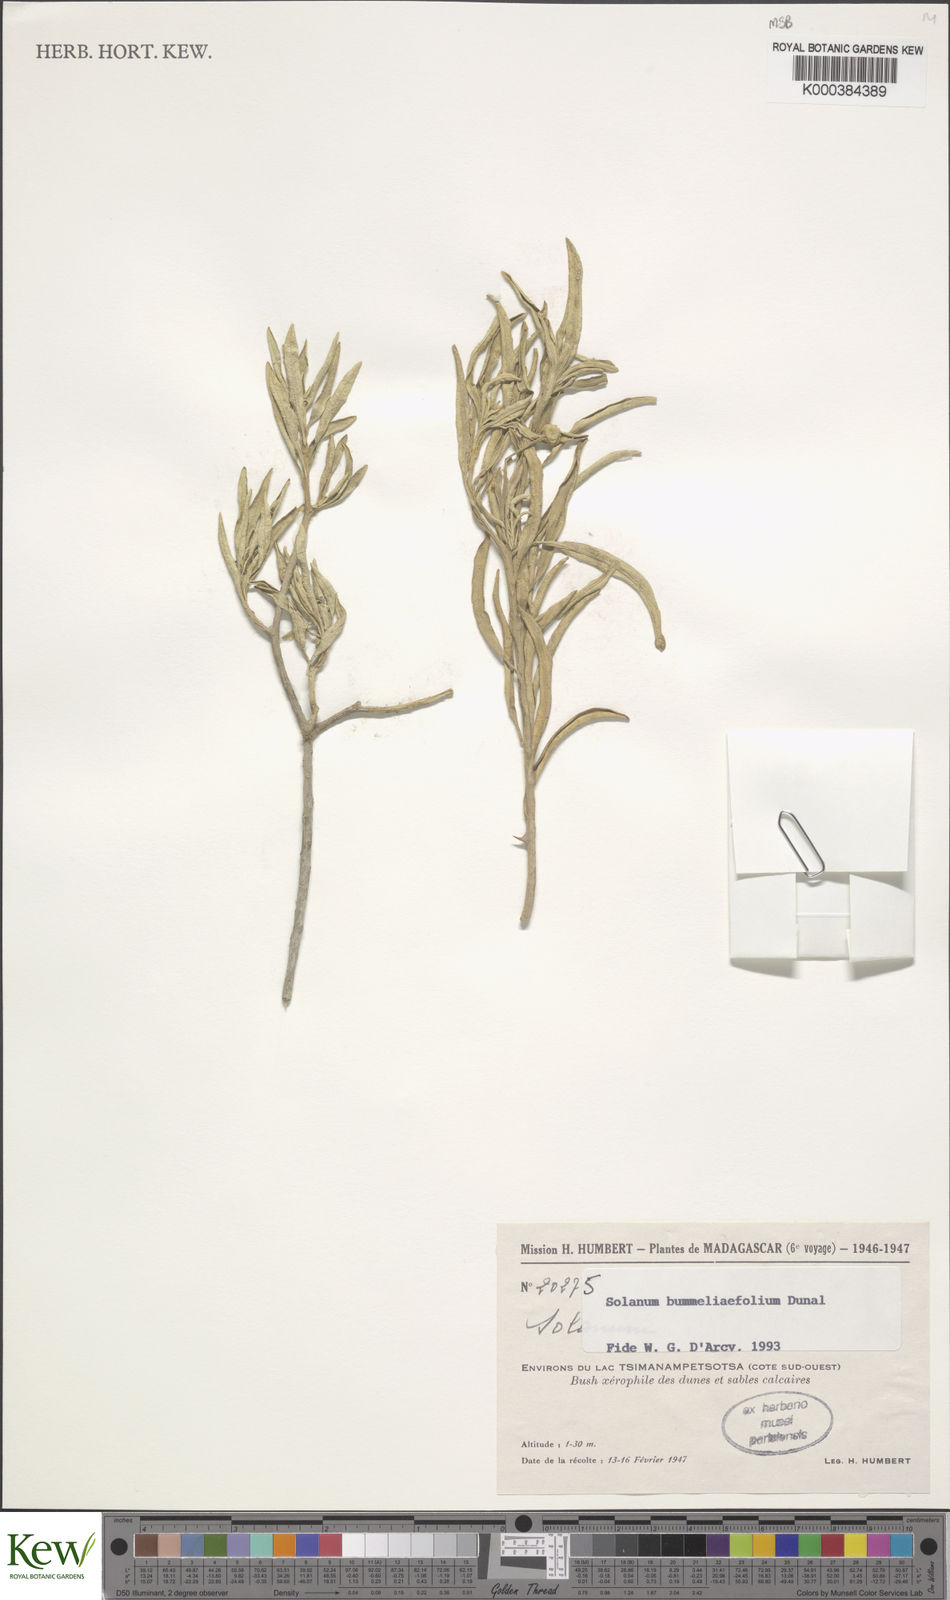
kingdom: Plantae
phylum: Tracheophyta
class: Magnoliopsida
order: Solanales
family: Solanaceae
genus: Solanum
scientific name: Solanum bumeliifolium
